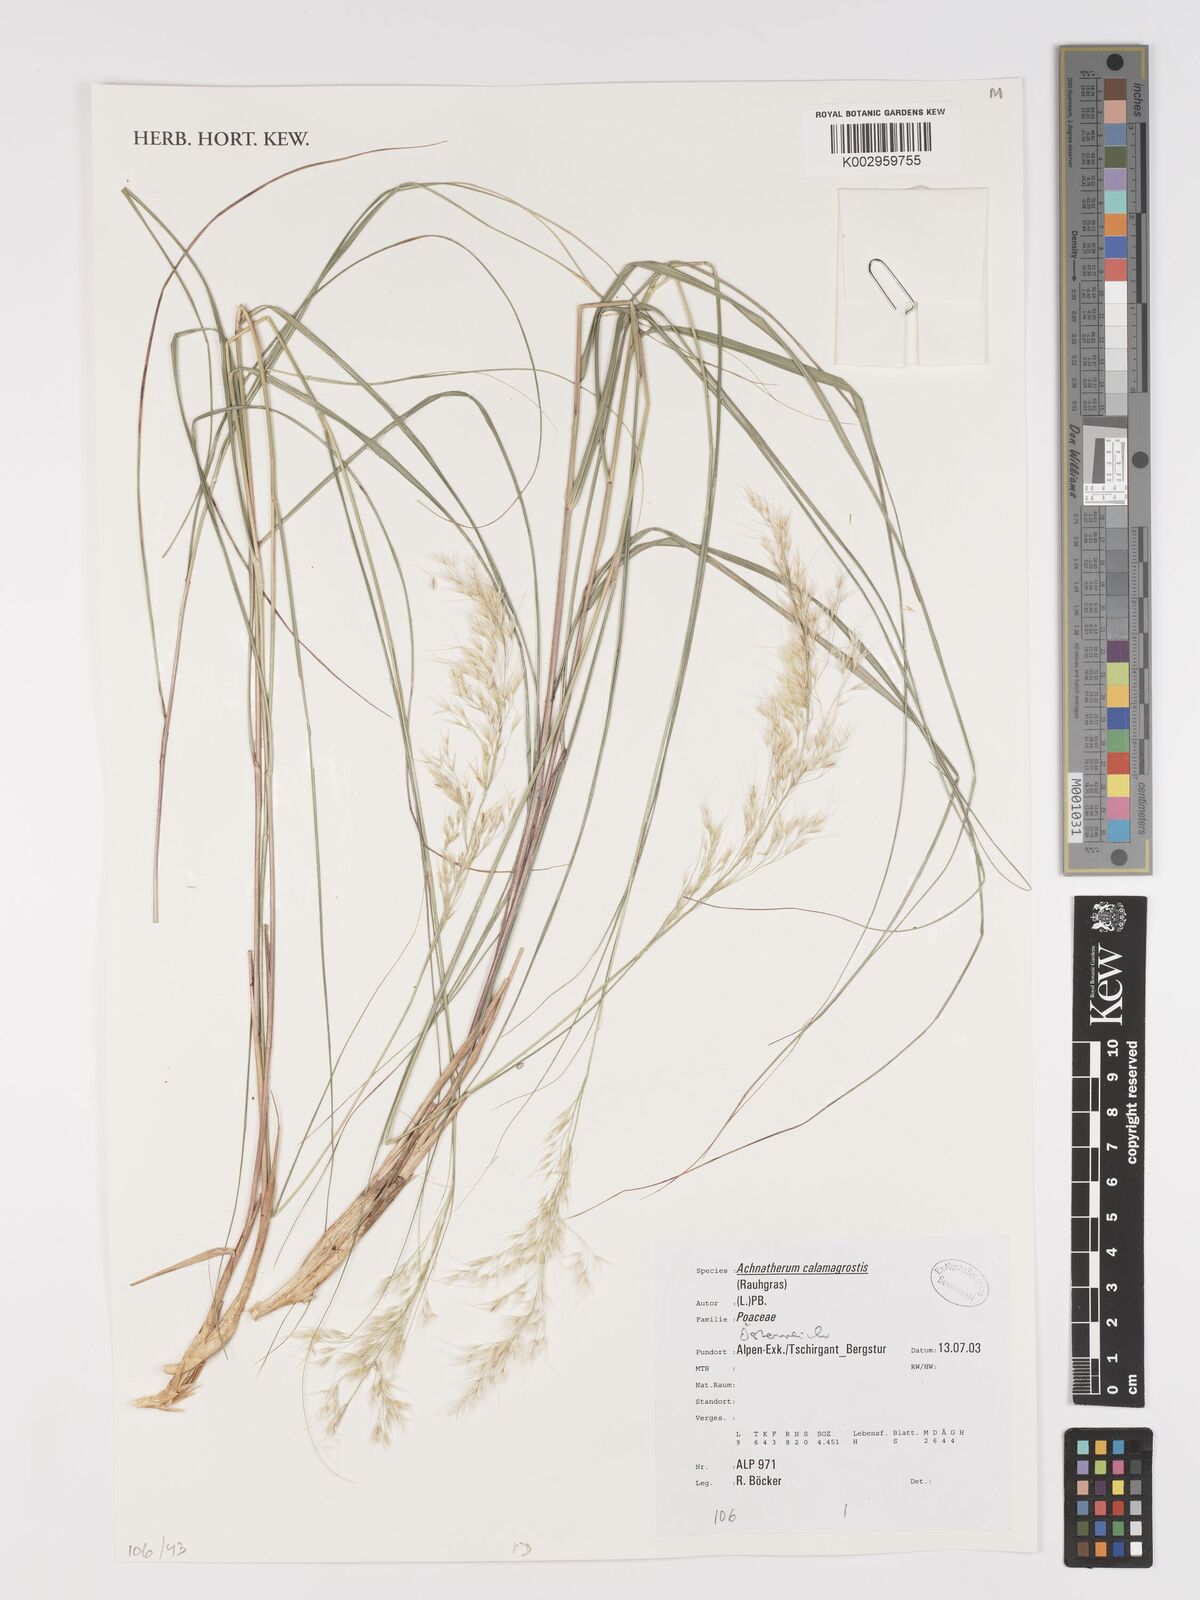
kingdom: Plantae
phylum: Tracheophyta
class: Liliopsida
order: Poales
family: Poaceae
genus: Achnatherum
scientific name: Achnatherum calamagrostis
